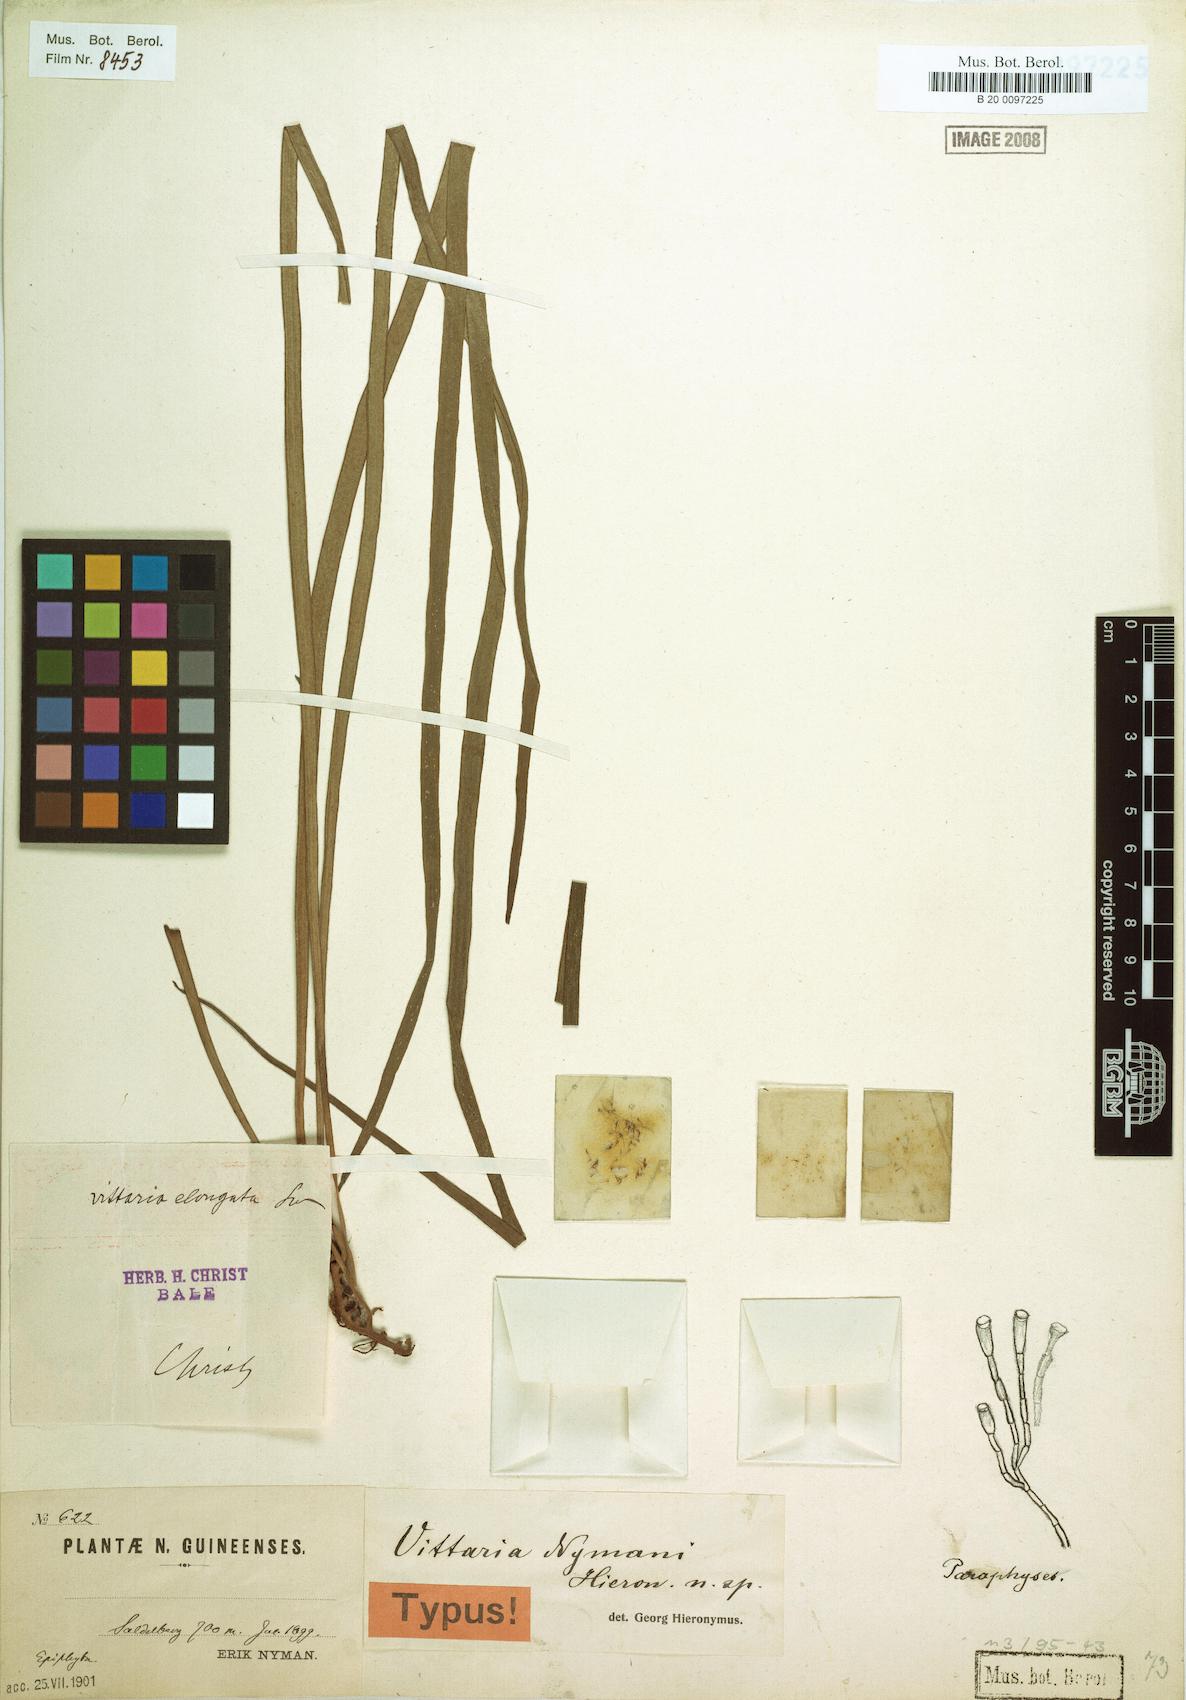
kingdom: Plantae
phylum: Tracheophyta
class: Polypodiopsida
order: Polypodiales
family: Pteridaceae
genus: Haplopteris
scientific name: Haplopteris elongata
